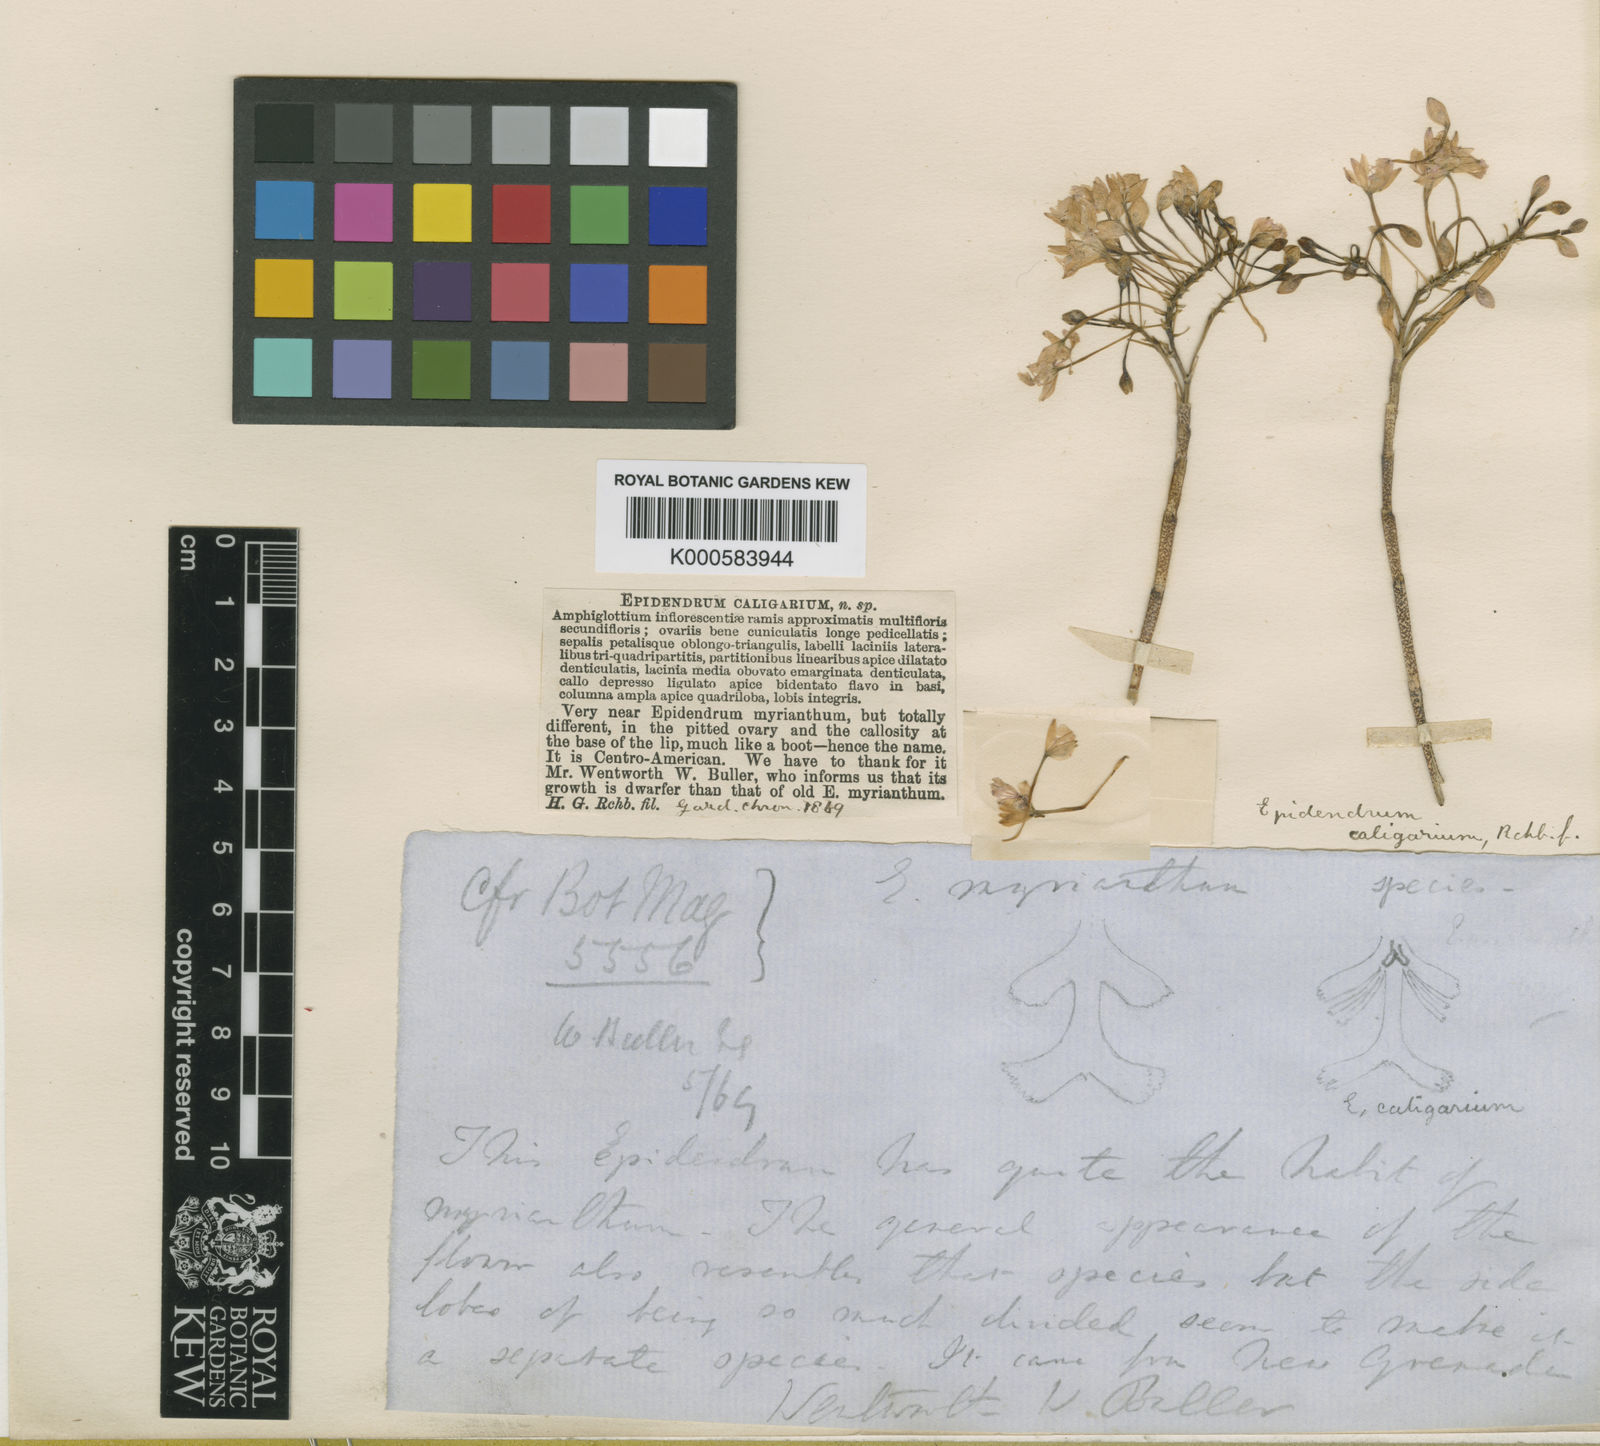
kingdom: Plantae
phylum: Tracheophyta
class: Liliopsida
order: Asparagales
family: Orchidaceae
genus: Epidendrum
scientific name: Epidendrum
